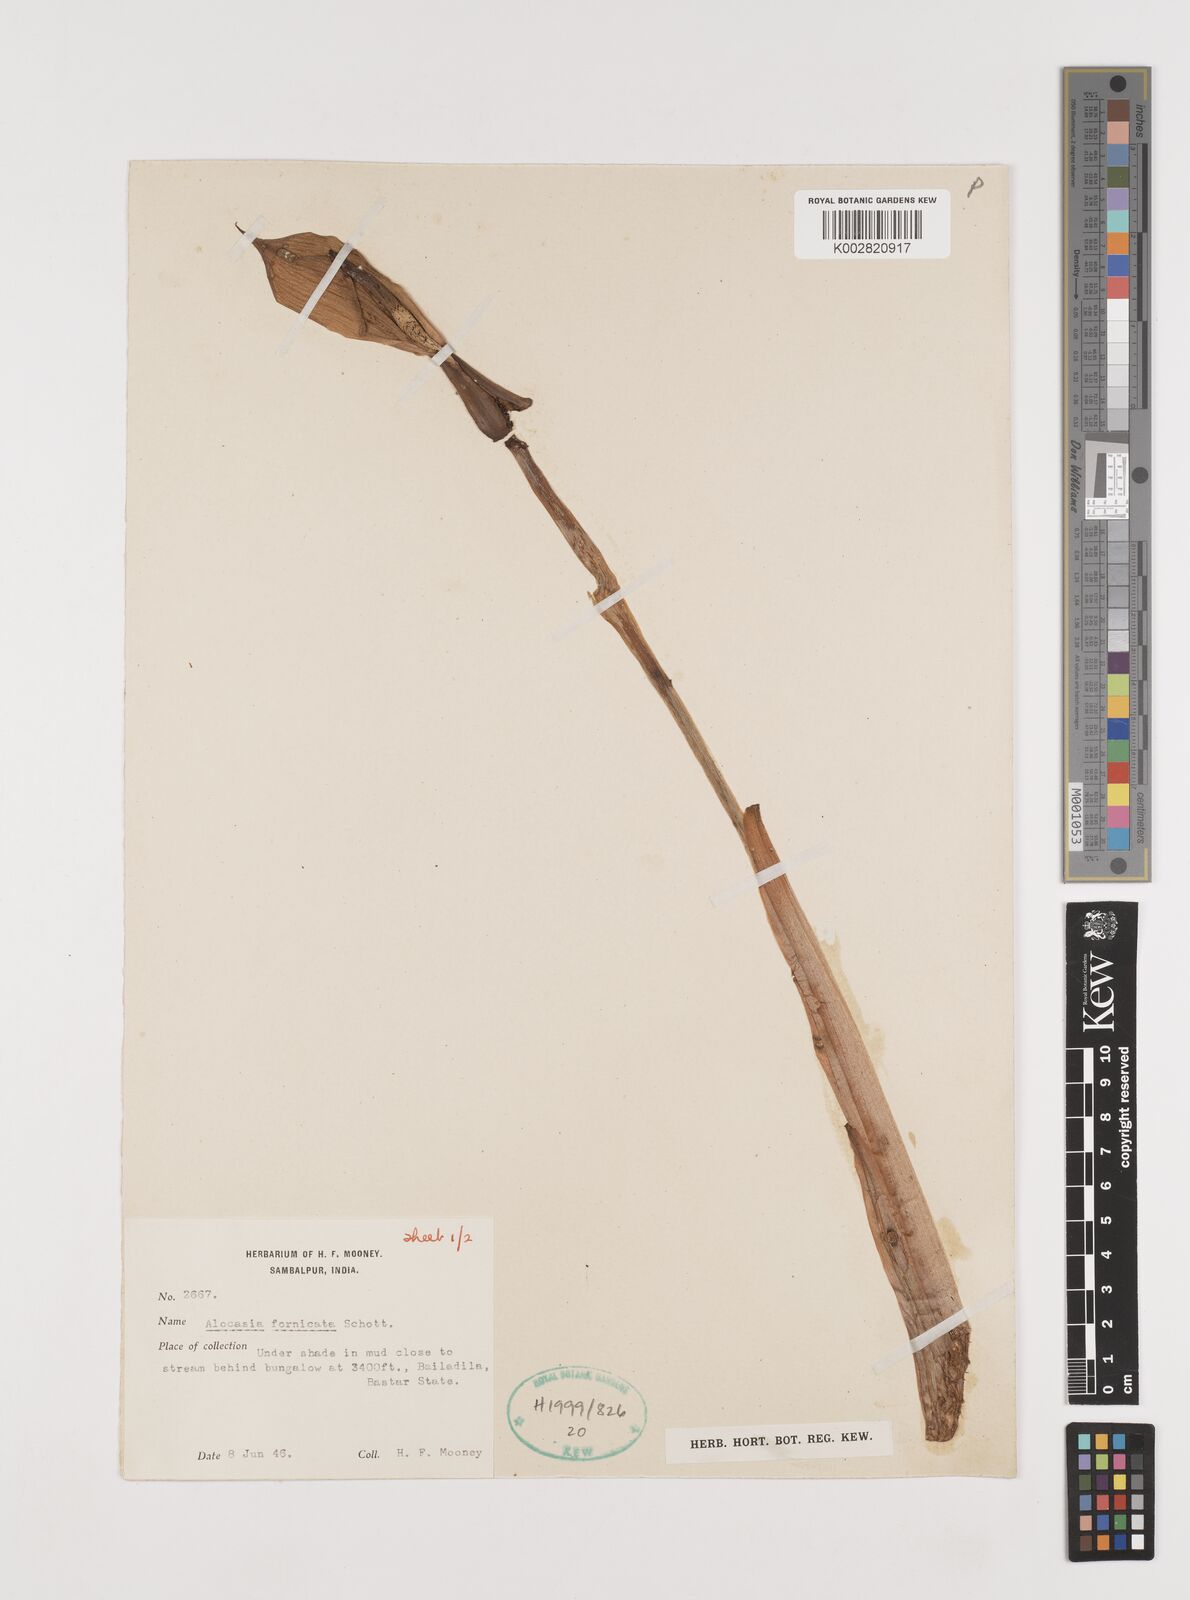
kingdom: Plantae
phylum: Tracheophyta
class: Liliopsida
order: Alismatales
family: Araceae
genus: Alocasia
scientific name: Alocasia fornicata
